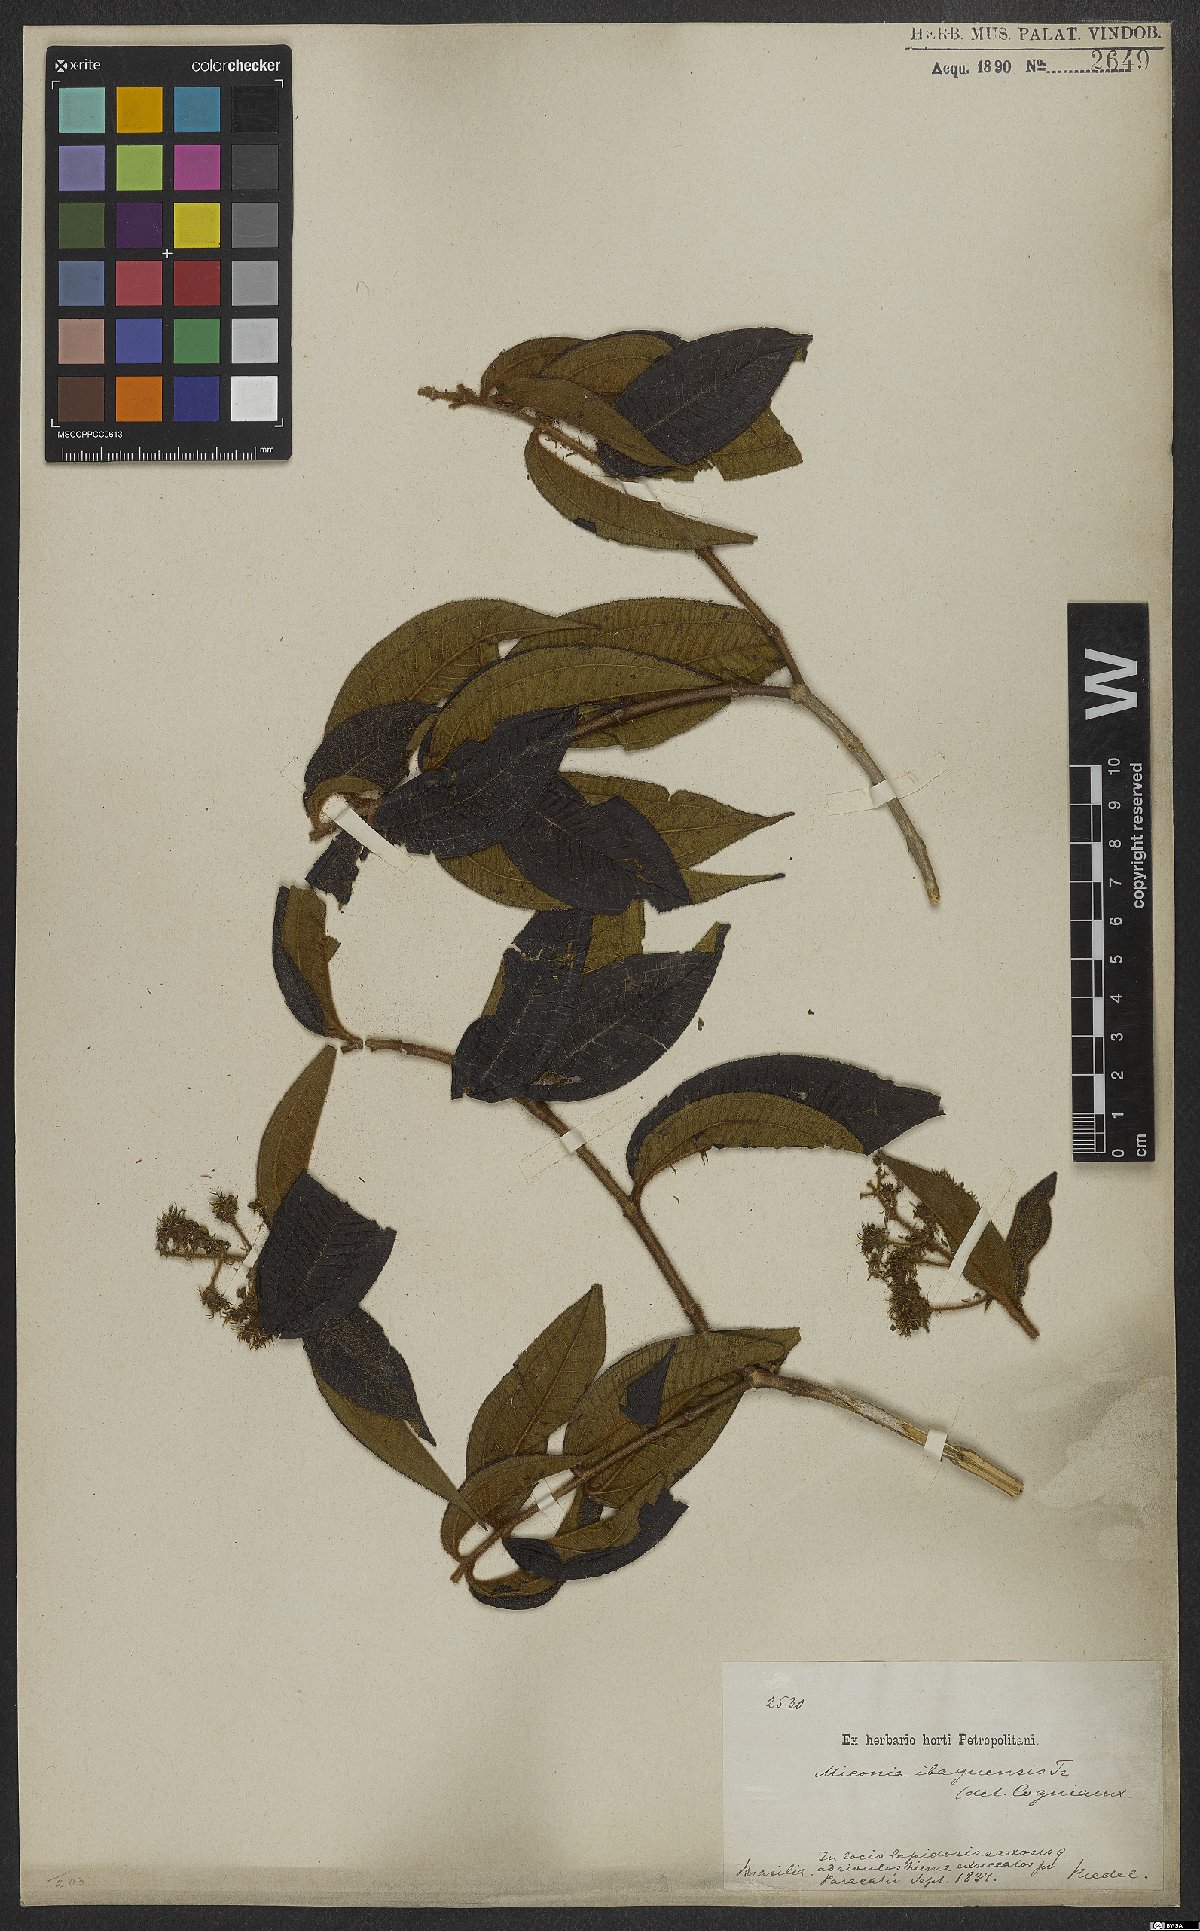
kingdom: Plantae
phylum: Tracheophyta
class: Magnoliopsida
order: Myrtales
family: Melastomataceae
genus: Miconia
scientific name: Miconia ibaguensis
